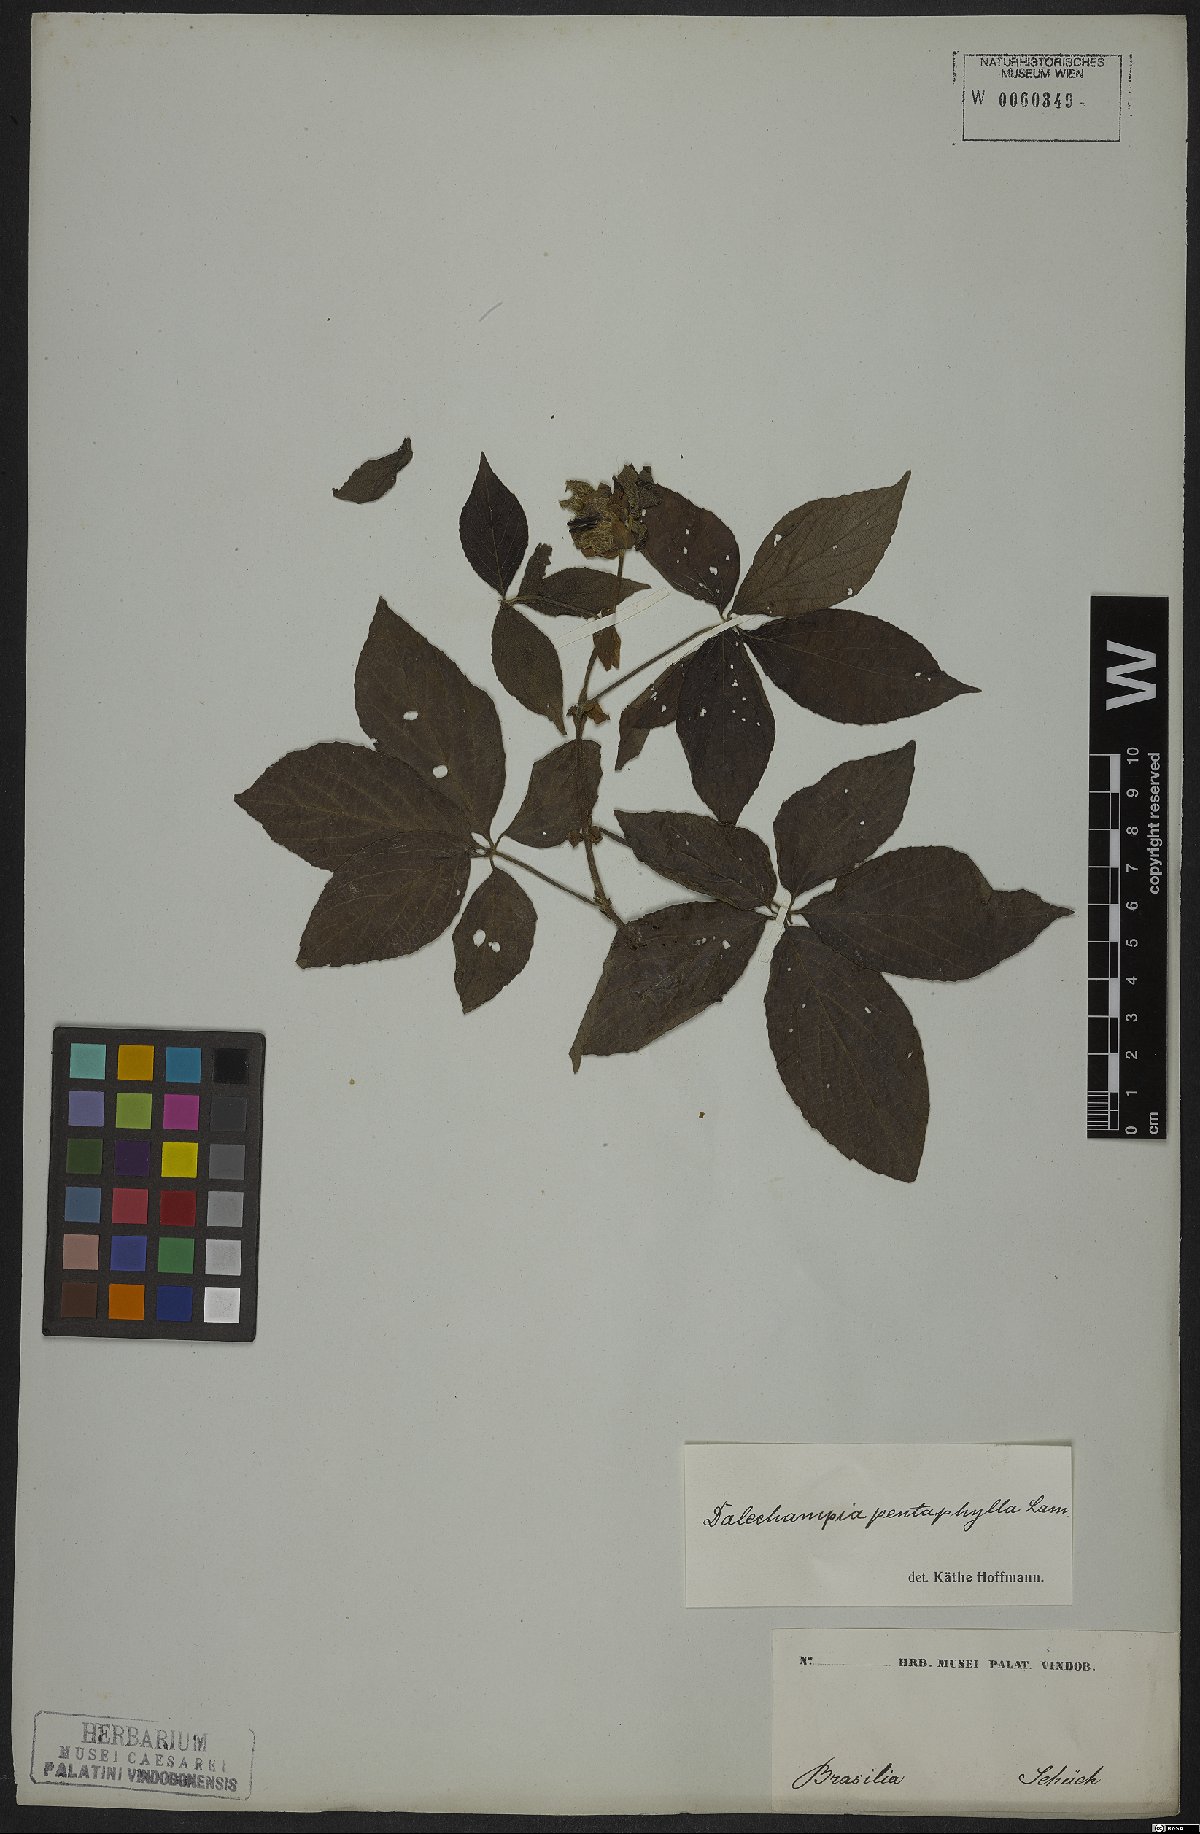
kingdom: Plantae
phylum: Tracheophyta
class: Magnoliopsida
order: Malpighiales
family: Euphorbiaceae
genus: Dalechampia
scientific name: Dalechampia pentaphylla
